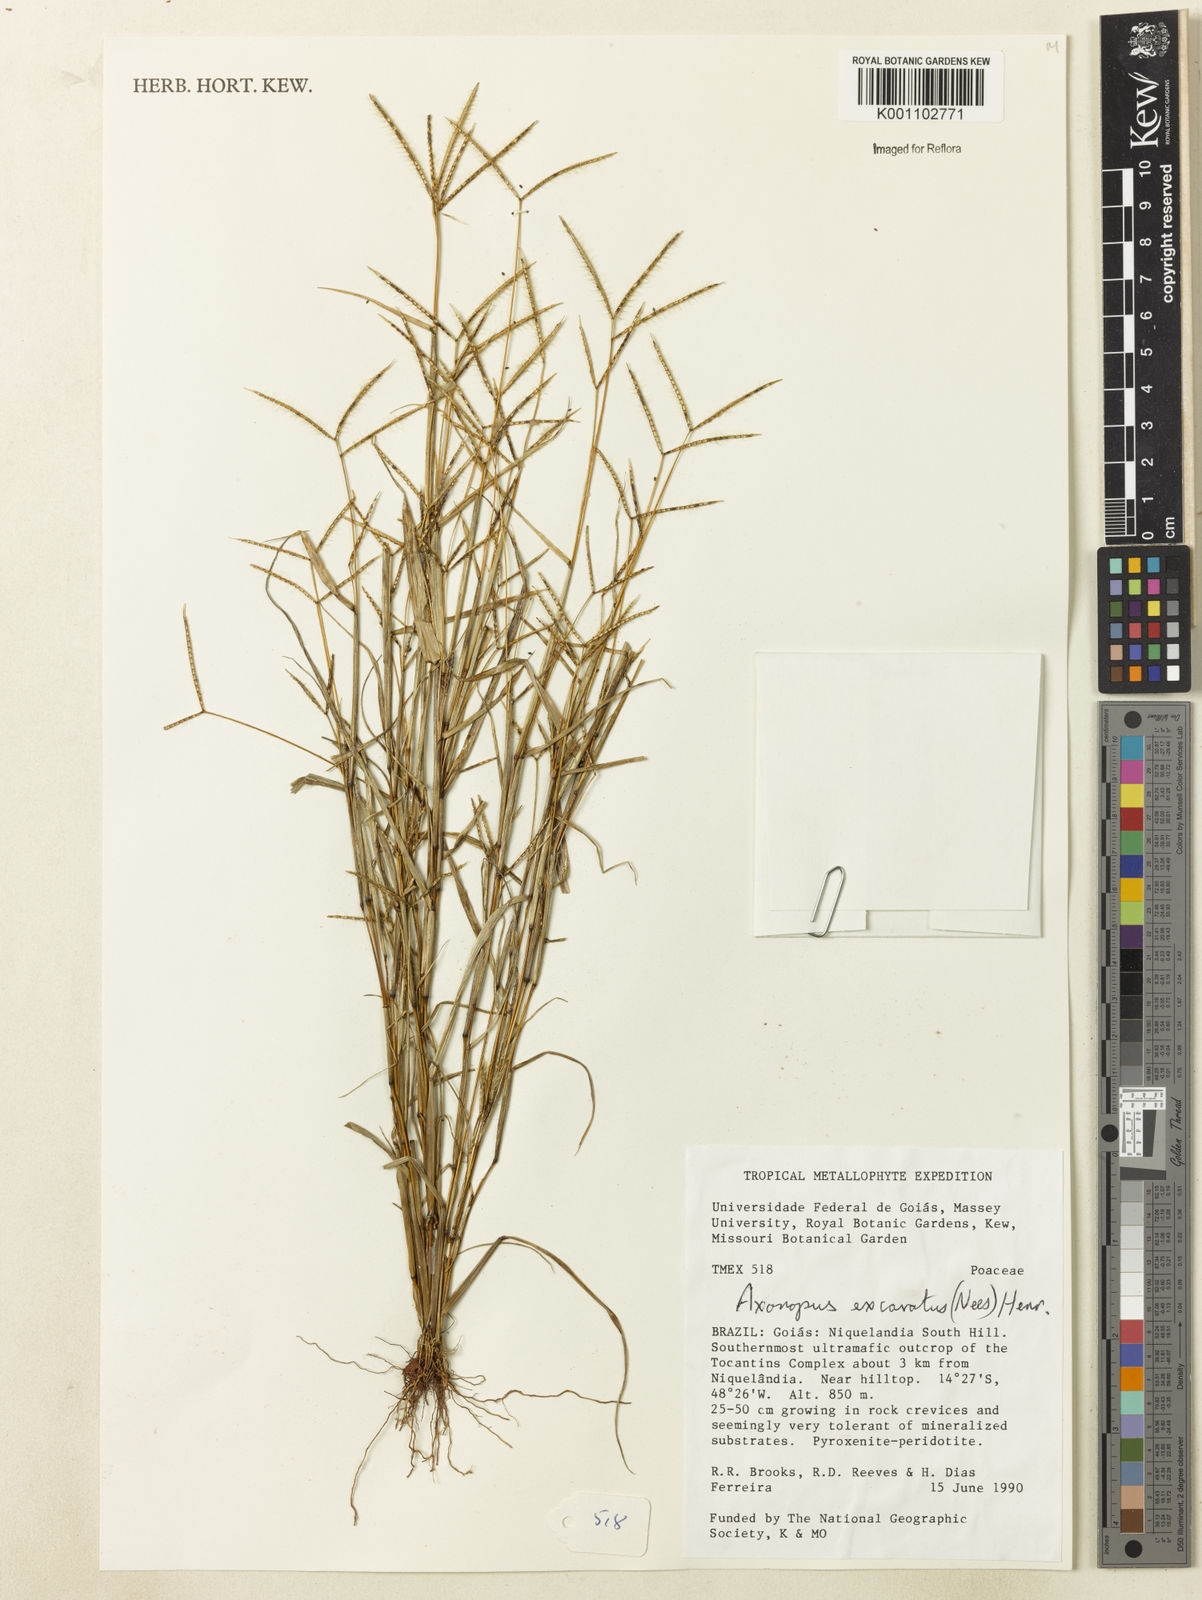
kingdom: Plantae
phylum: Tracheophyta
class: Liliopsida
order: Poales
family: Poaceae
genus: Axonopus
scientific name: Axonopus aureus
